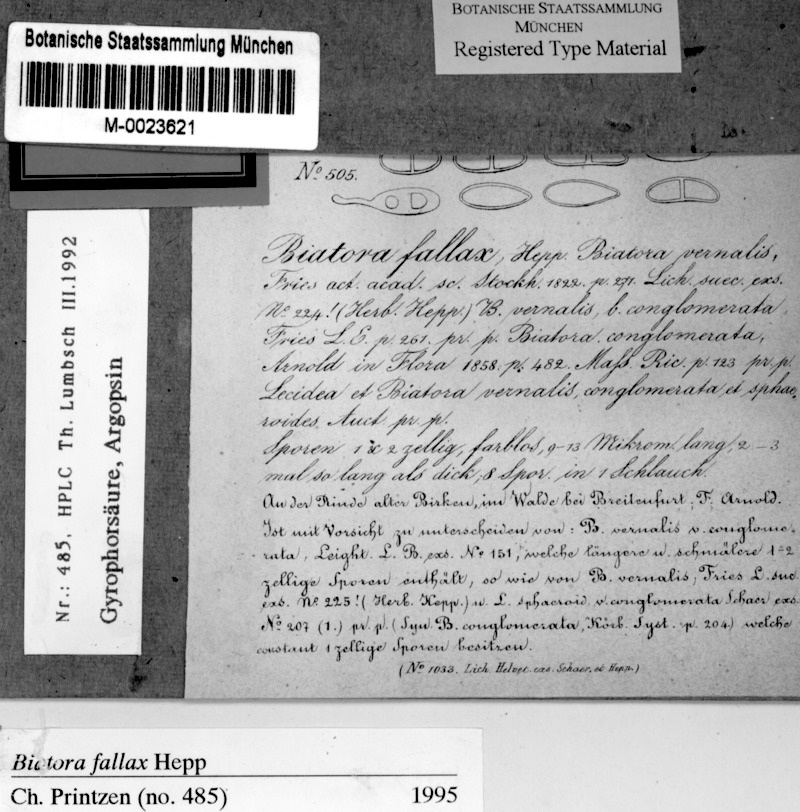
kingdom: Fungi
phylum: Ascomycota
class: Lecanoromycetes
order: Lecanorales
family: Ramalinaceae
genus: Biatora
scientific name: Biatora fallax
